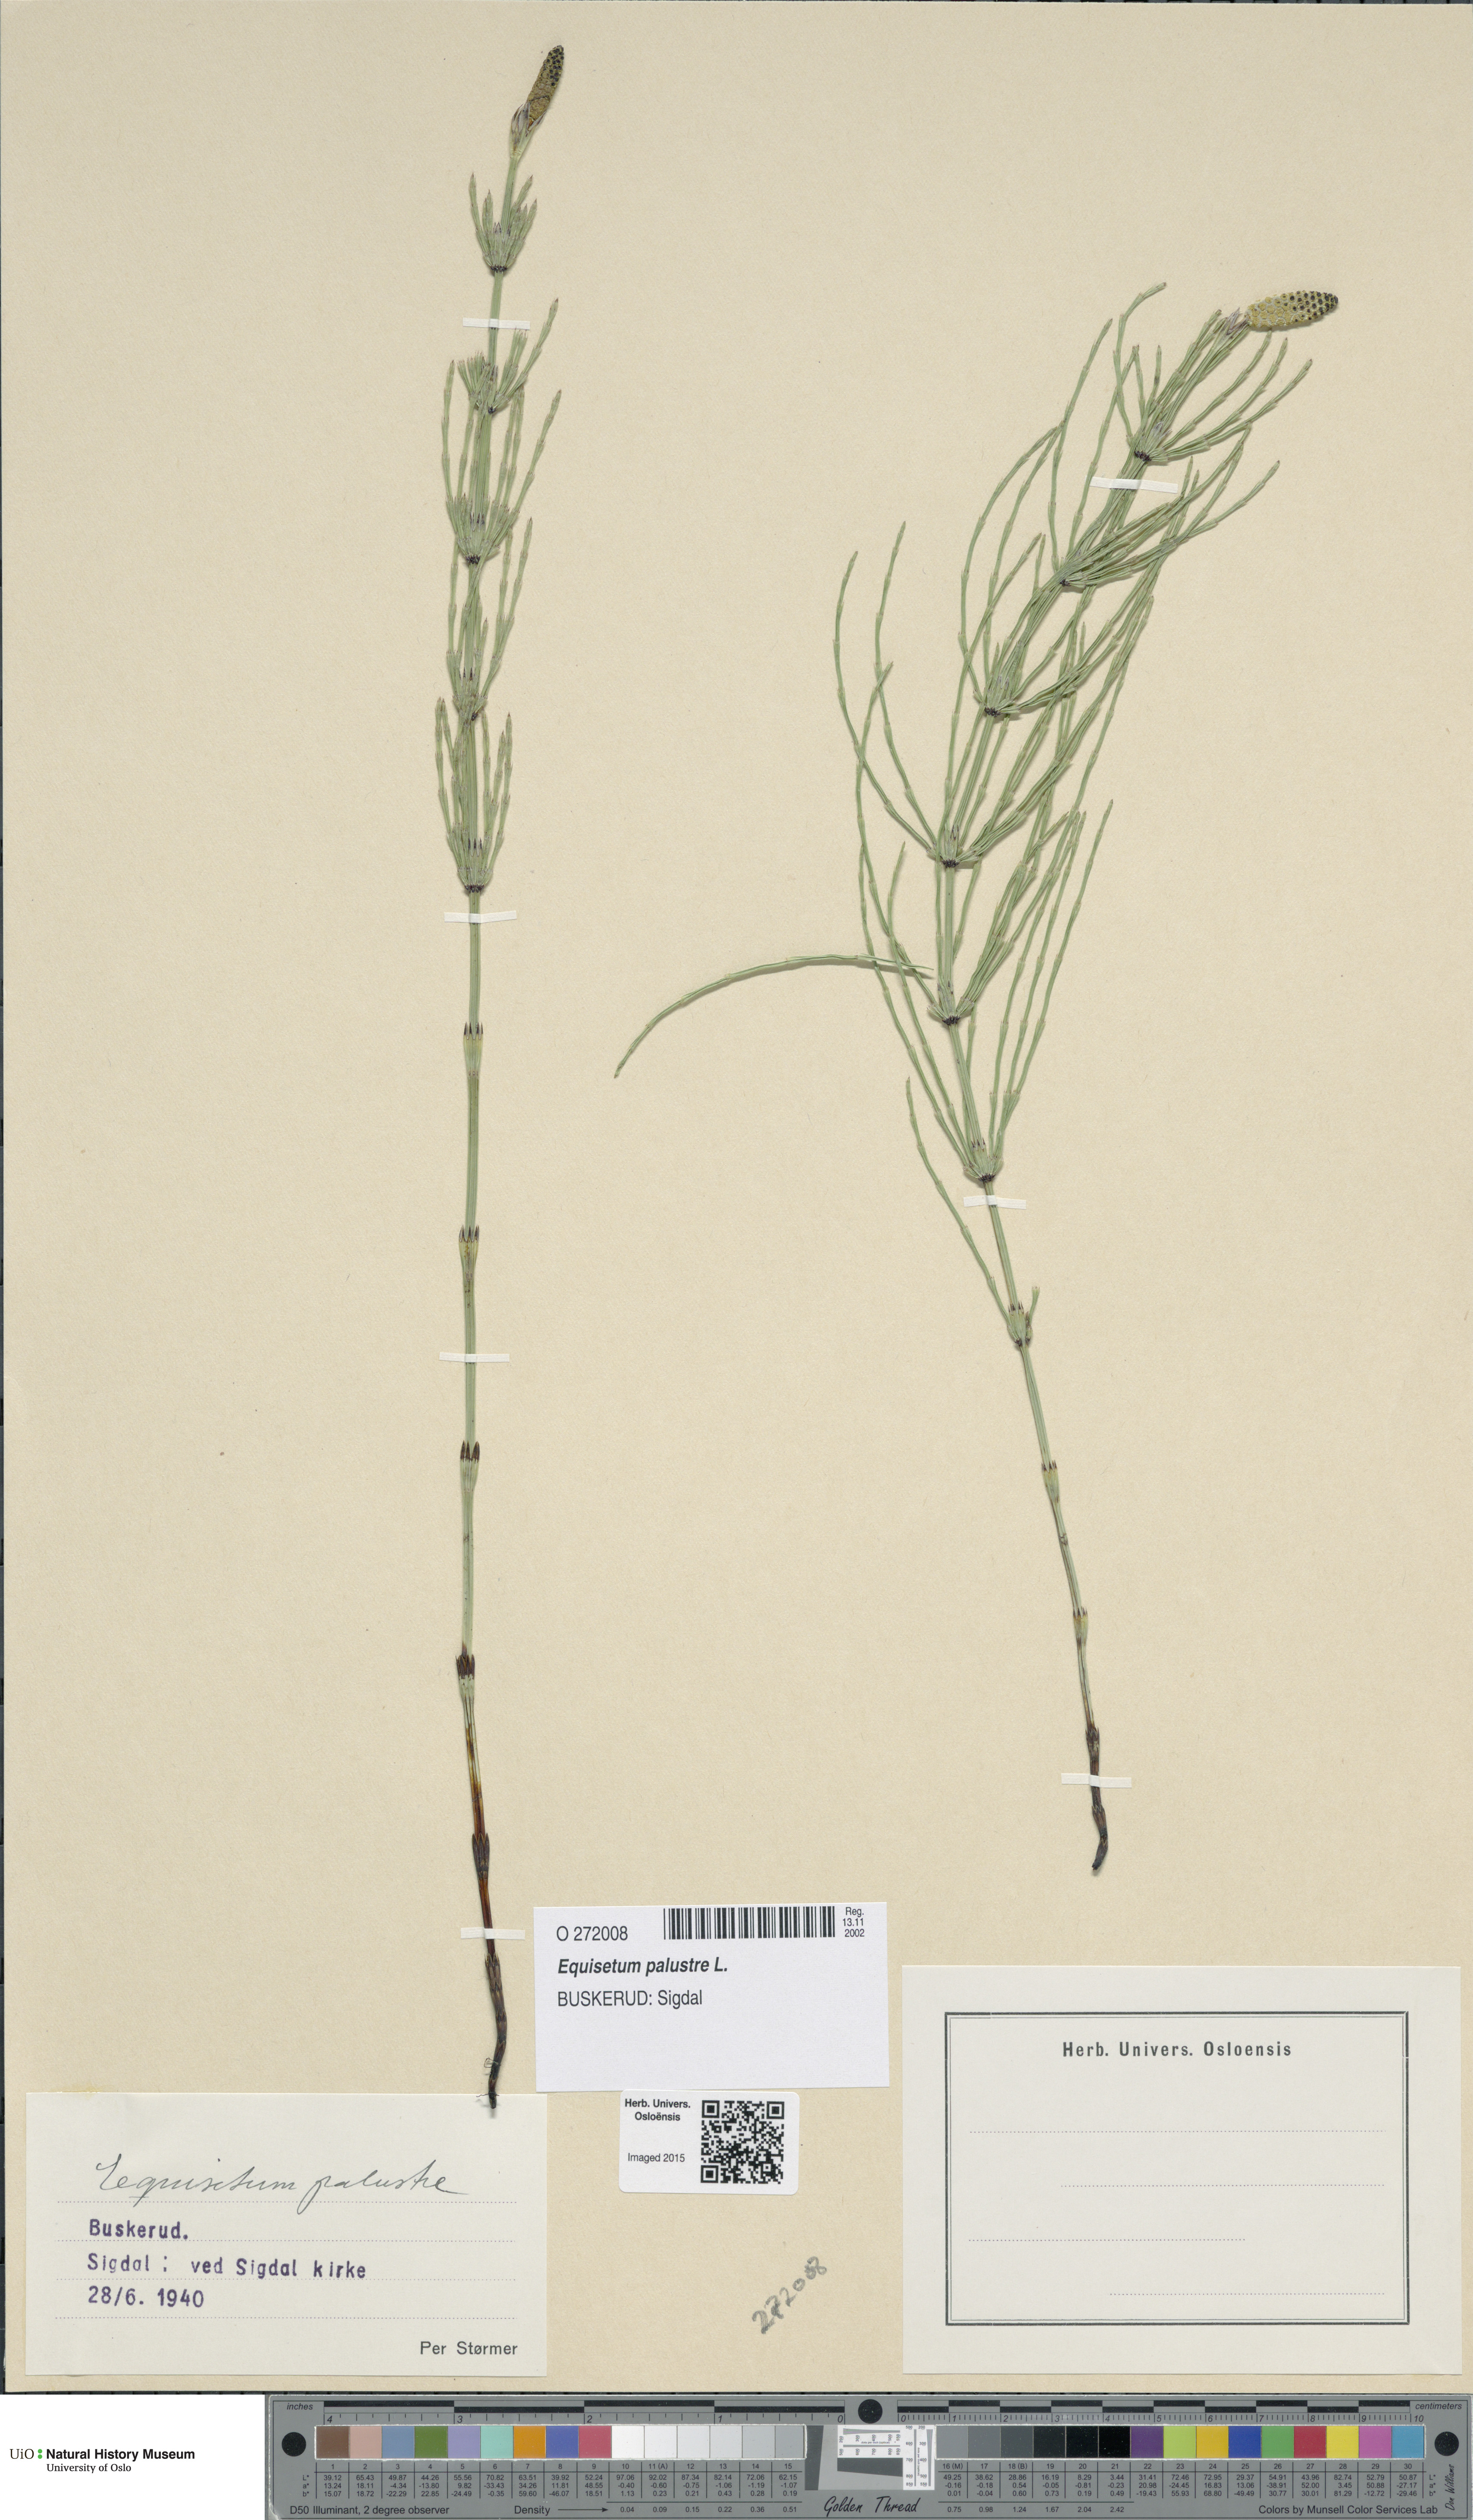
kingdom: Plantae
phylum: Tracheophyta
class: Polypodiopsida
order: Equisetales
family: Equisetaceae
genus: Equisetum
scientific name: Equisetum palustre
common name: Marsh horsetail
